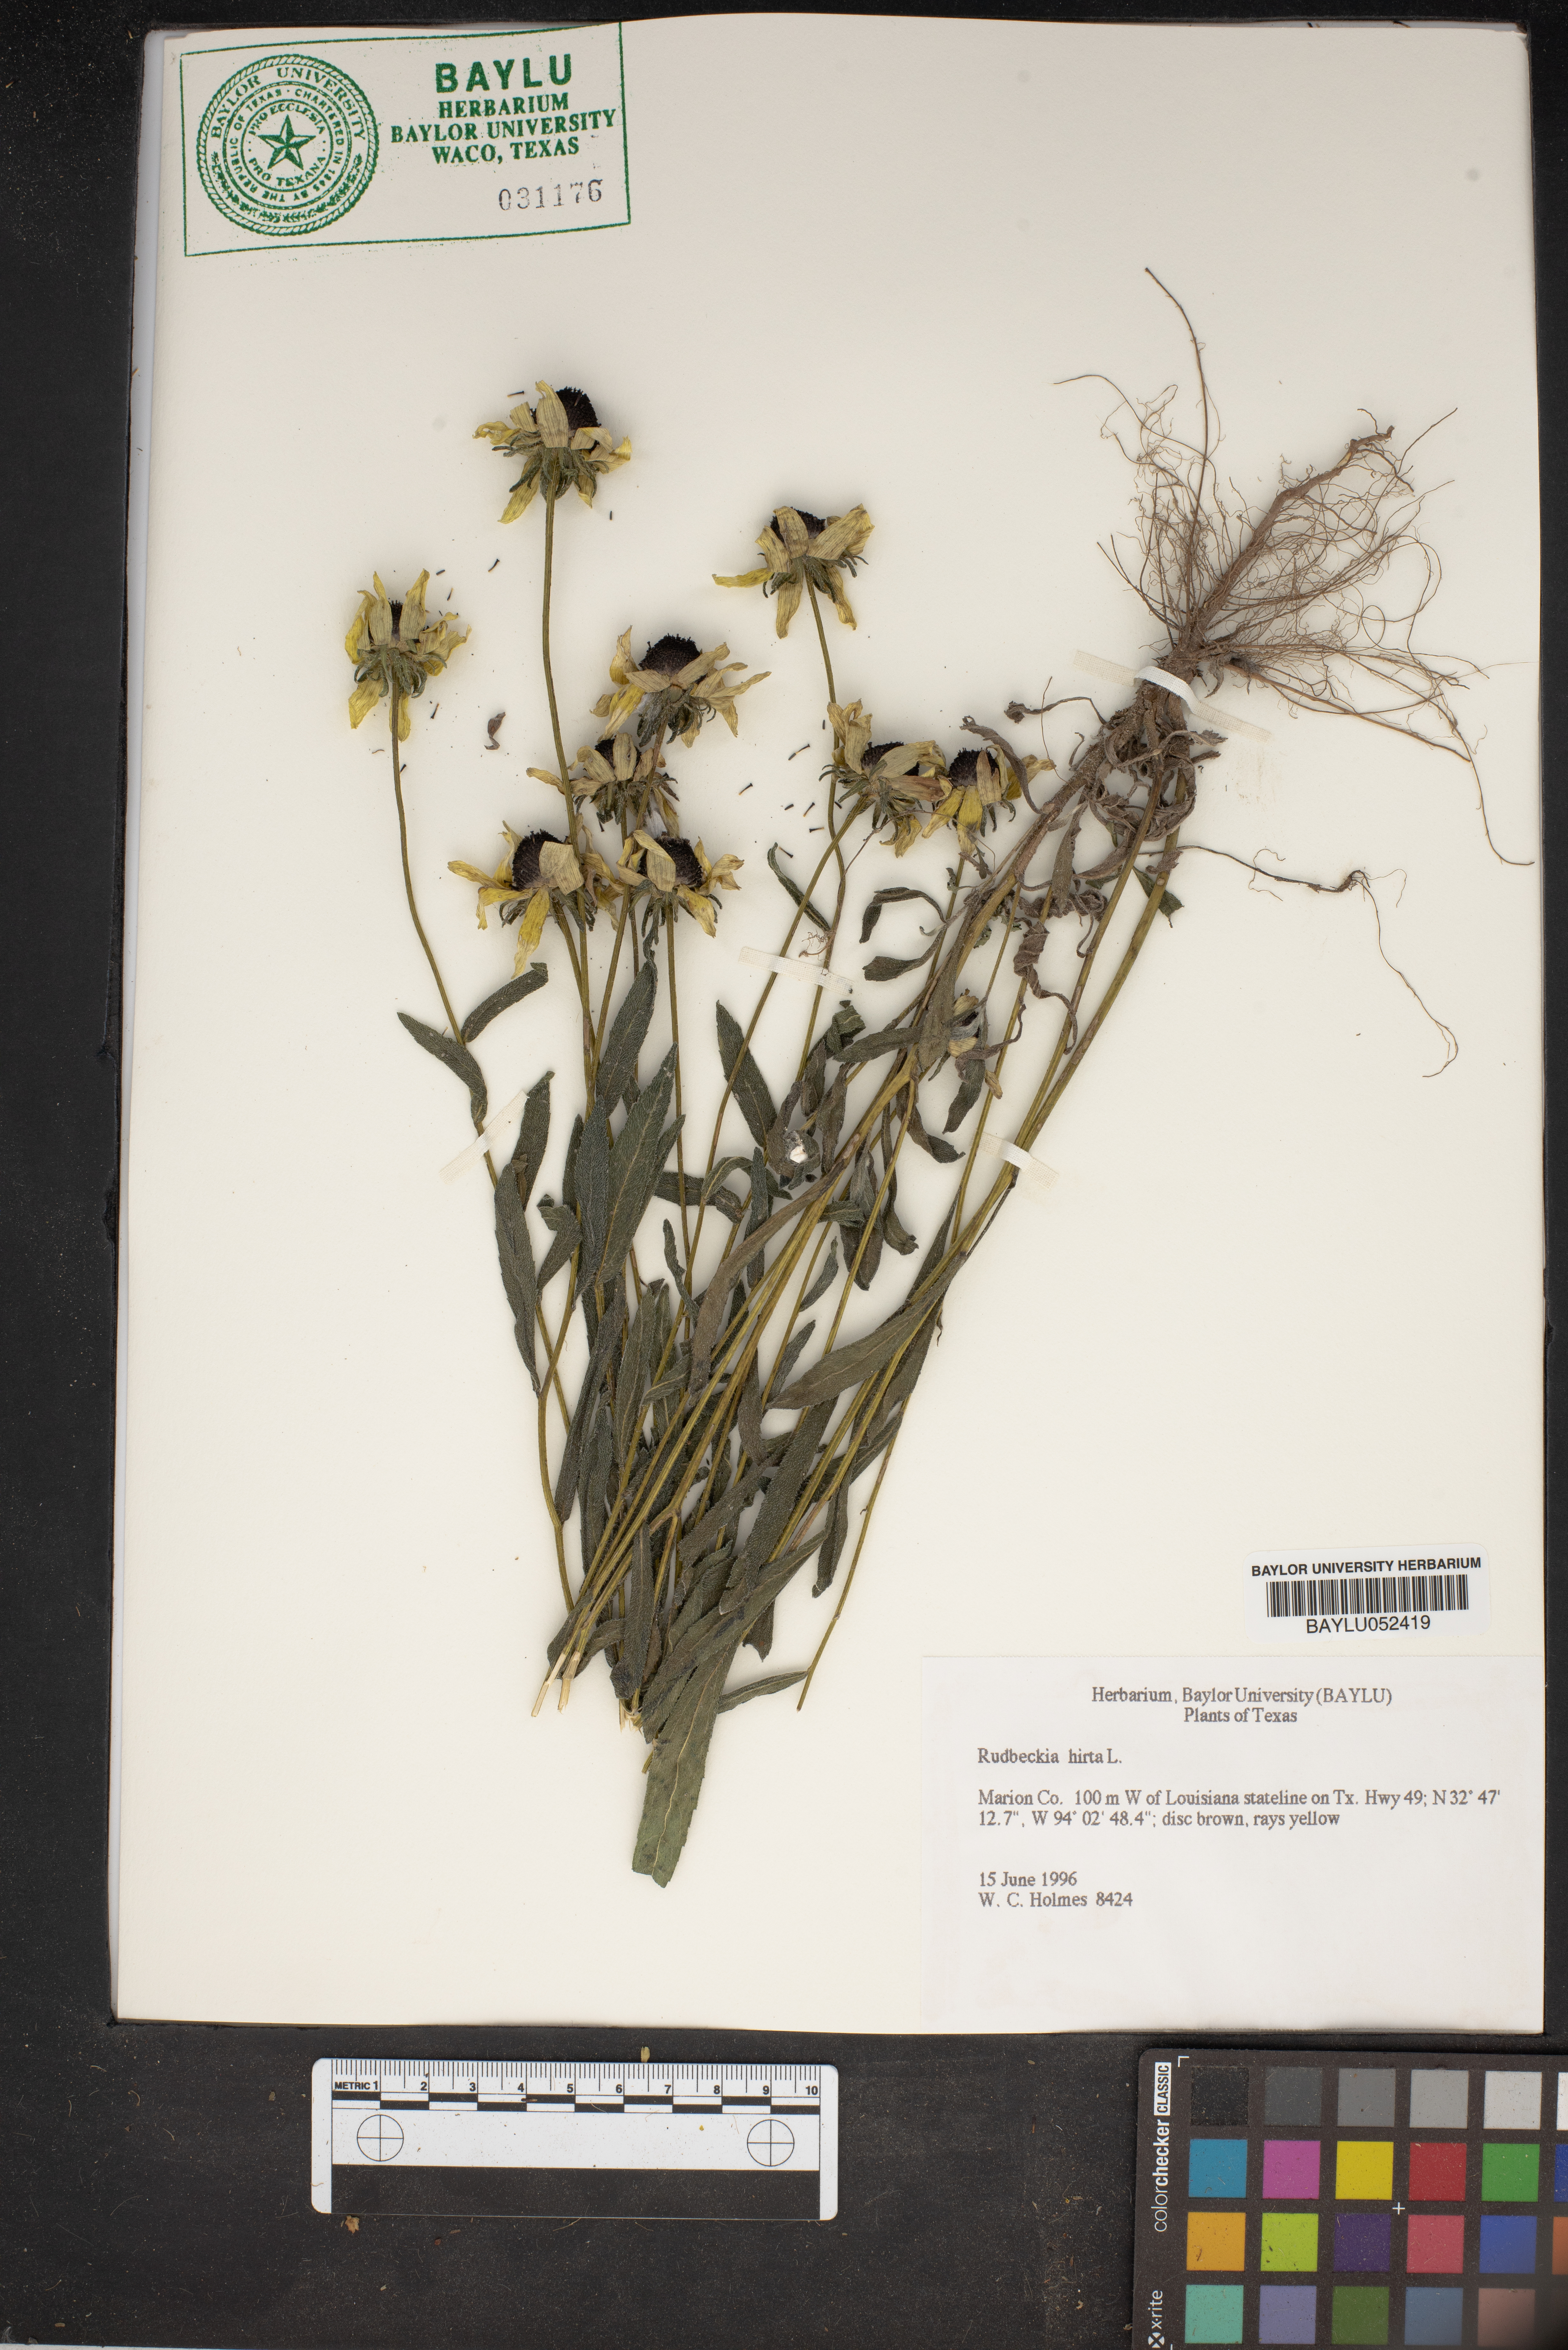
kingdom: Plantae
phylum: Tracheophyta
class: Magnoliopsida
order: Asterales
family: Asteraceae
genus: Rudbeckia
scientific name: Rudbeckia hirta
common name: Black-eyed-susan
